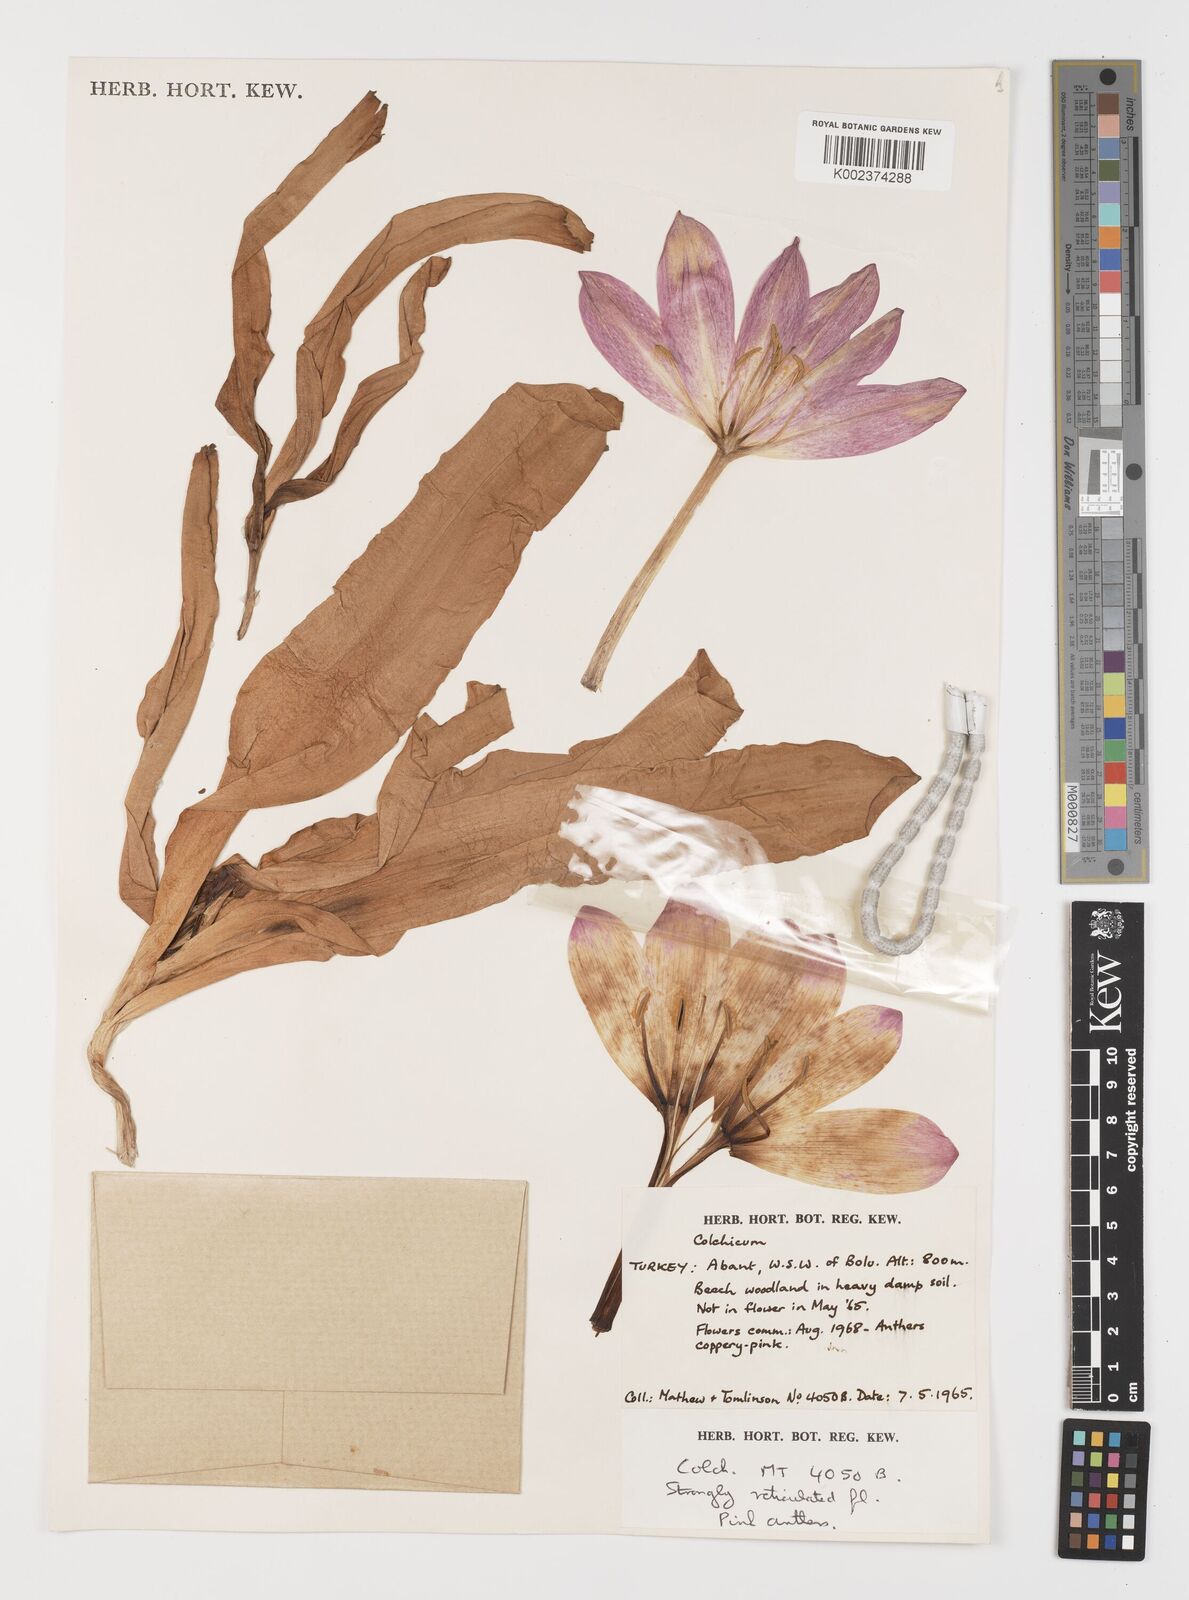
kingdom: Plantae
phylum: Tracheophyta
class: Liliopsida
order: Liliales
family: Colchicaceae
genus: Colchicum
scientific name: Colchicum
